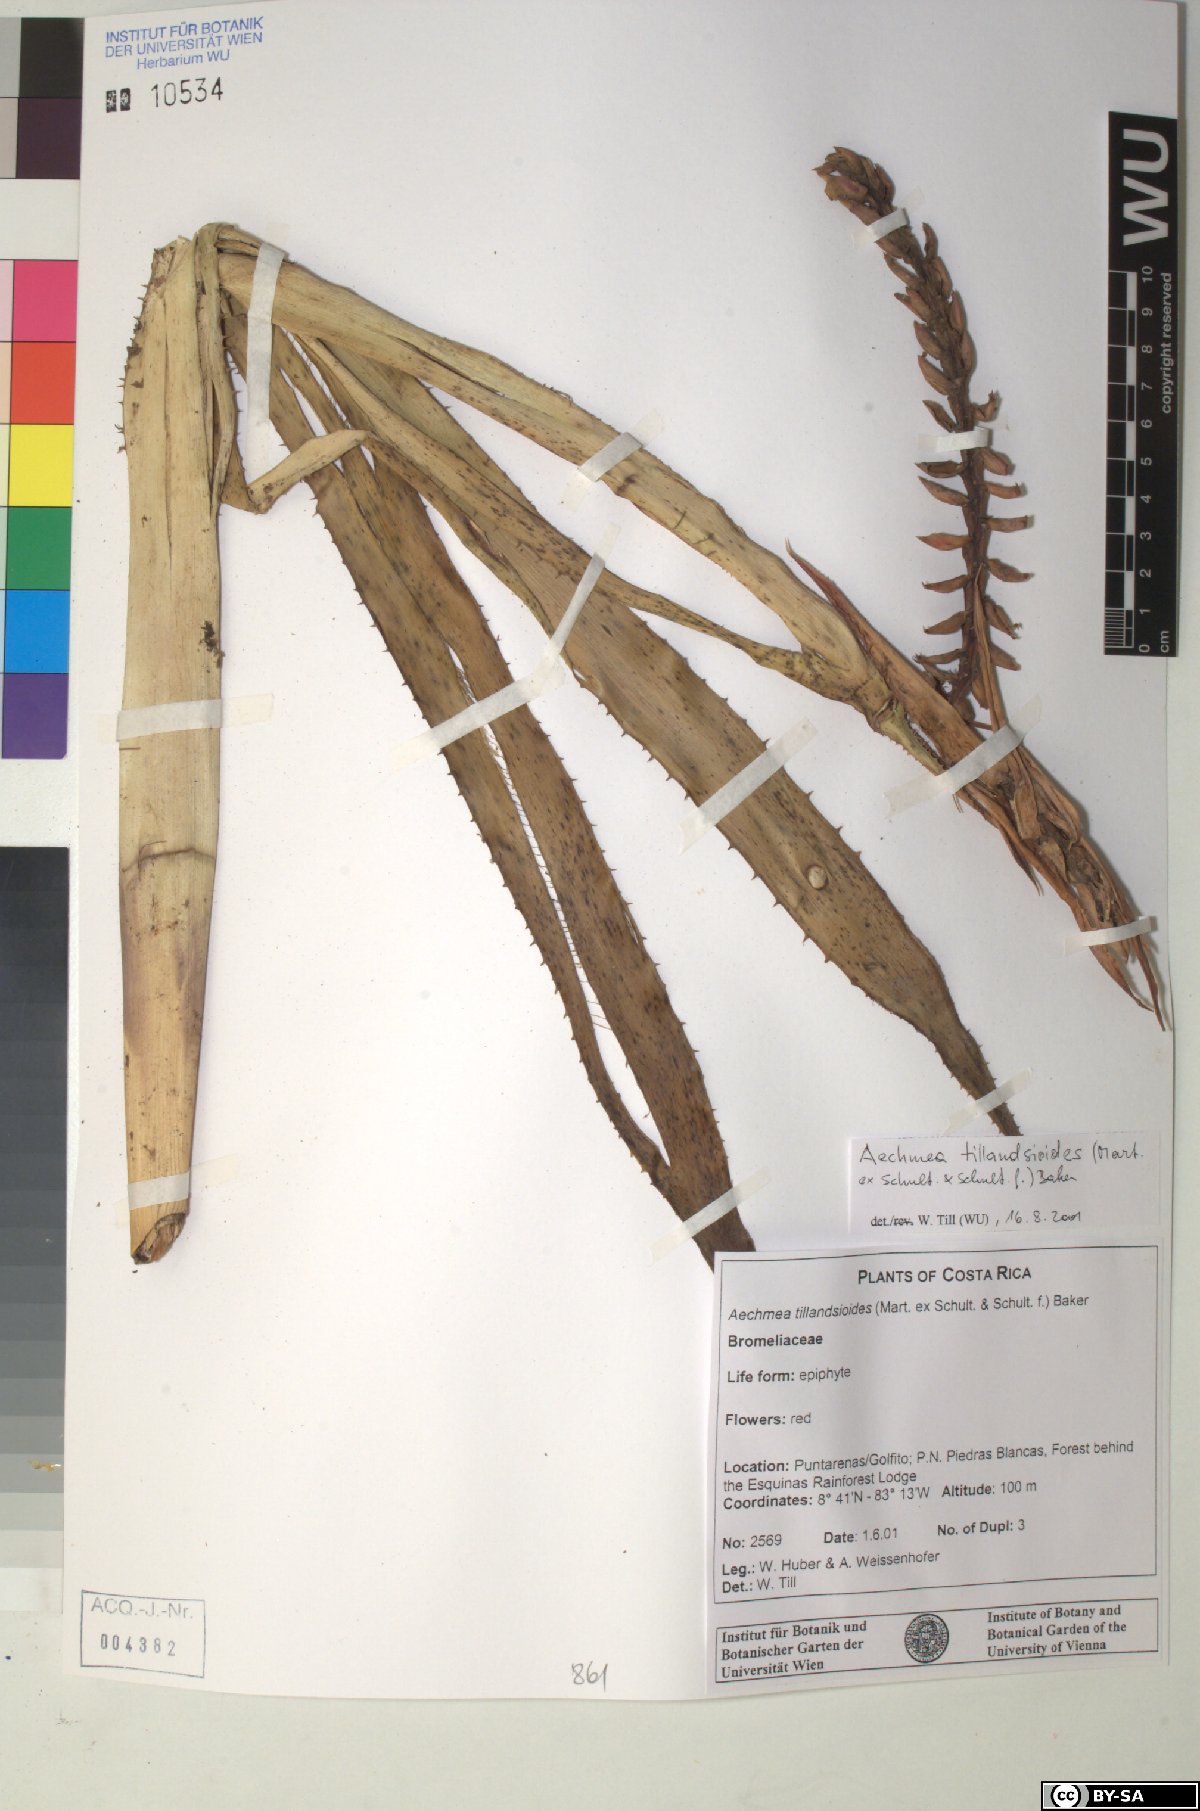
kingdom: Plantae
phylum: Tracheophyta
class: Liliopsida
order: Poales
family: Bromeliaceae
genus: Aechmea
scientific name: Aechmea tillandsioides
